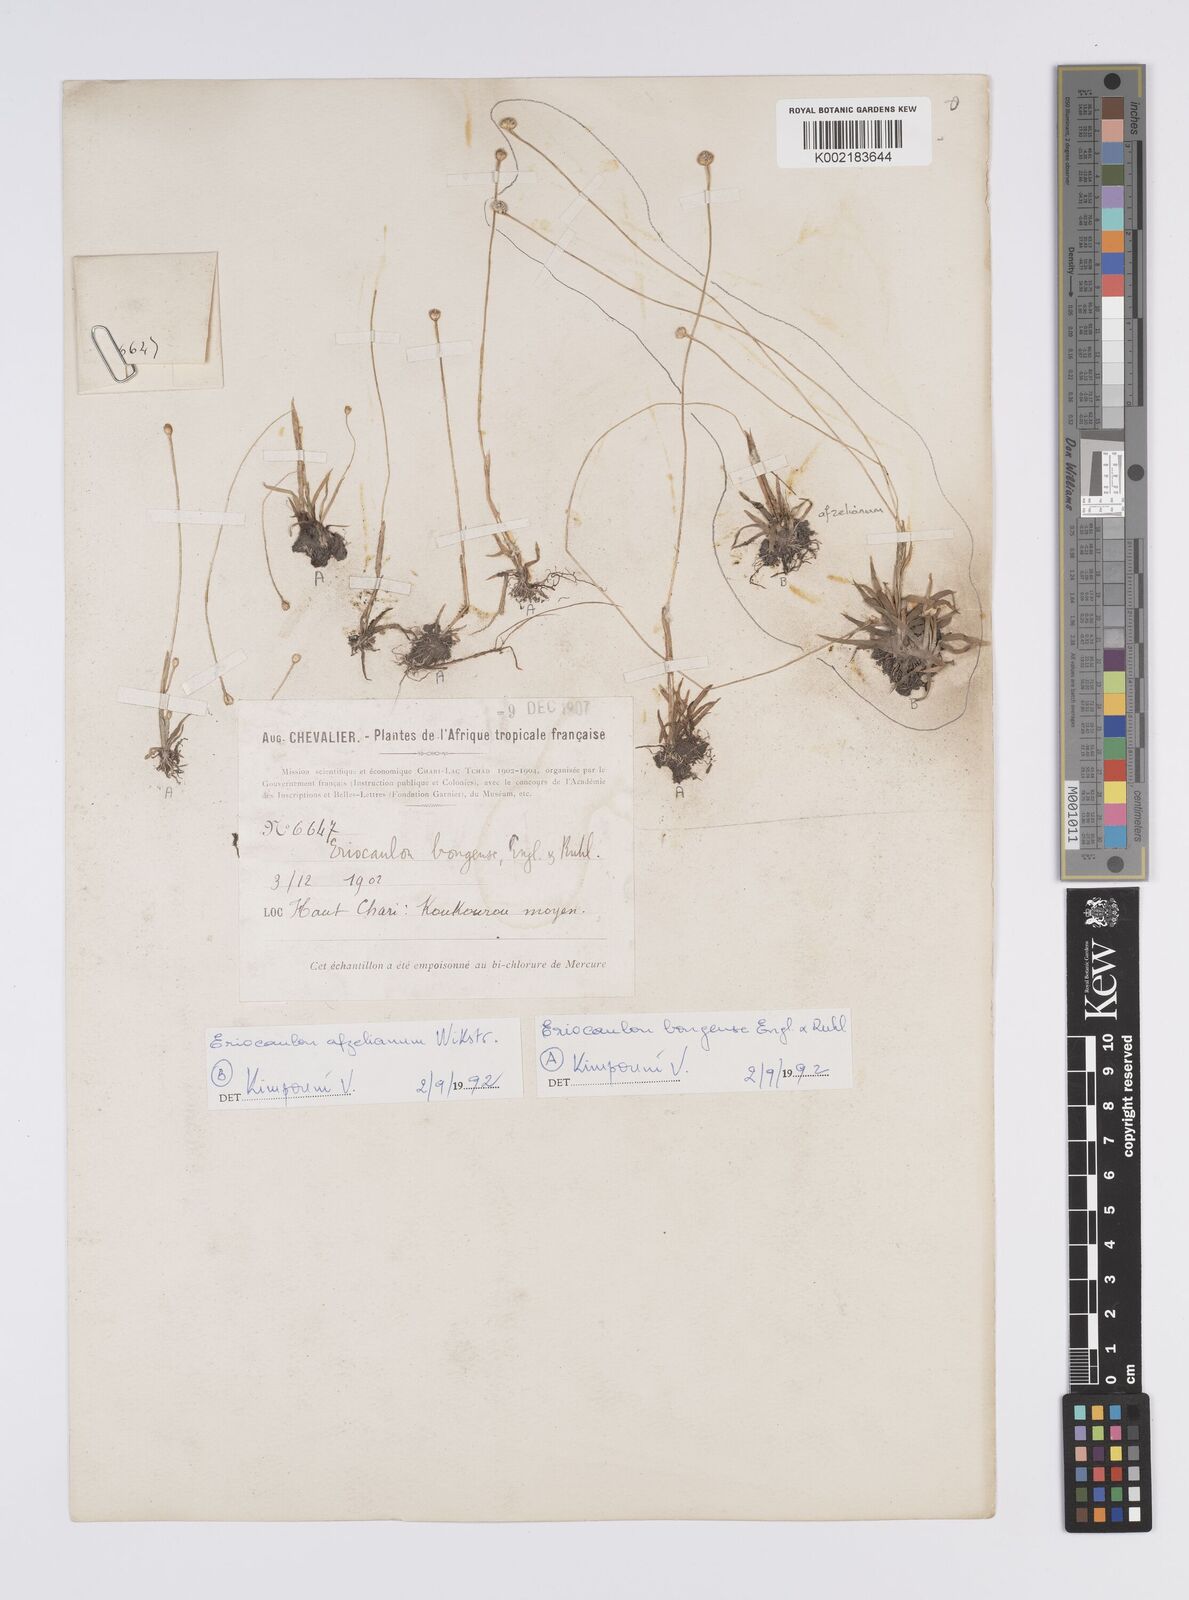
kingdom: Plantae
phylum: Tracheophyta
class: Liliopsida
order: Poales
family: Eriocaulaceae
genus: Eriocaulon
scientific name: Eriocaulon bongense
